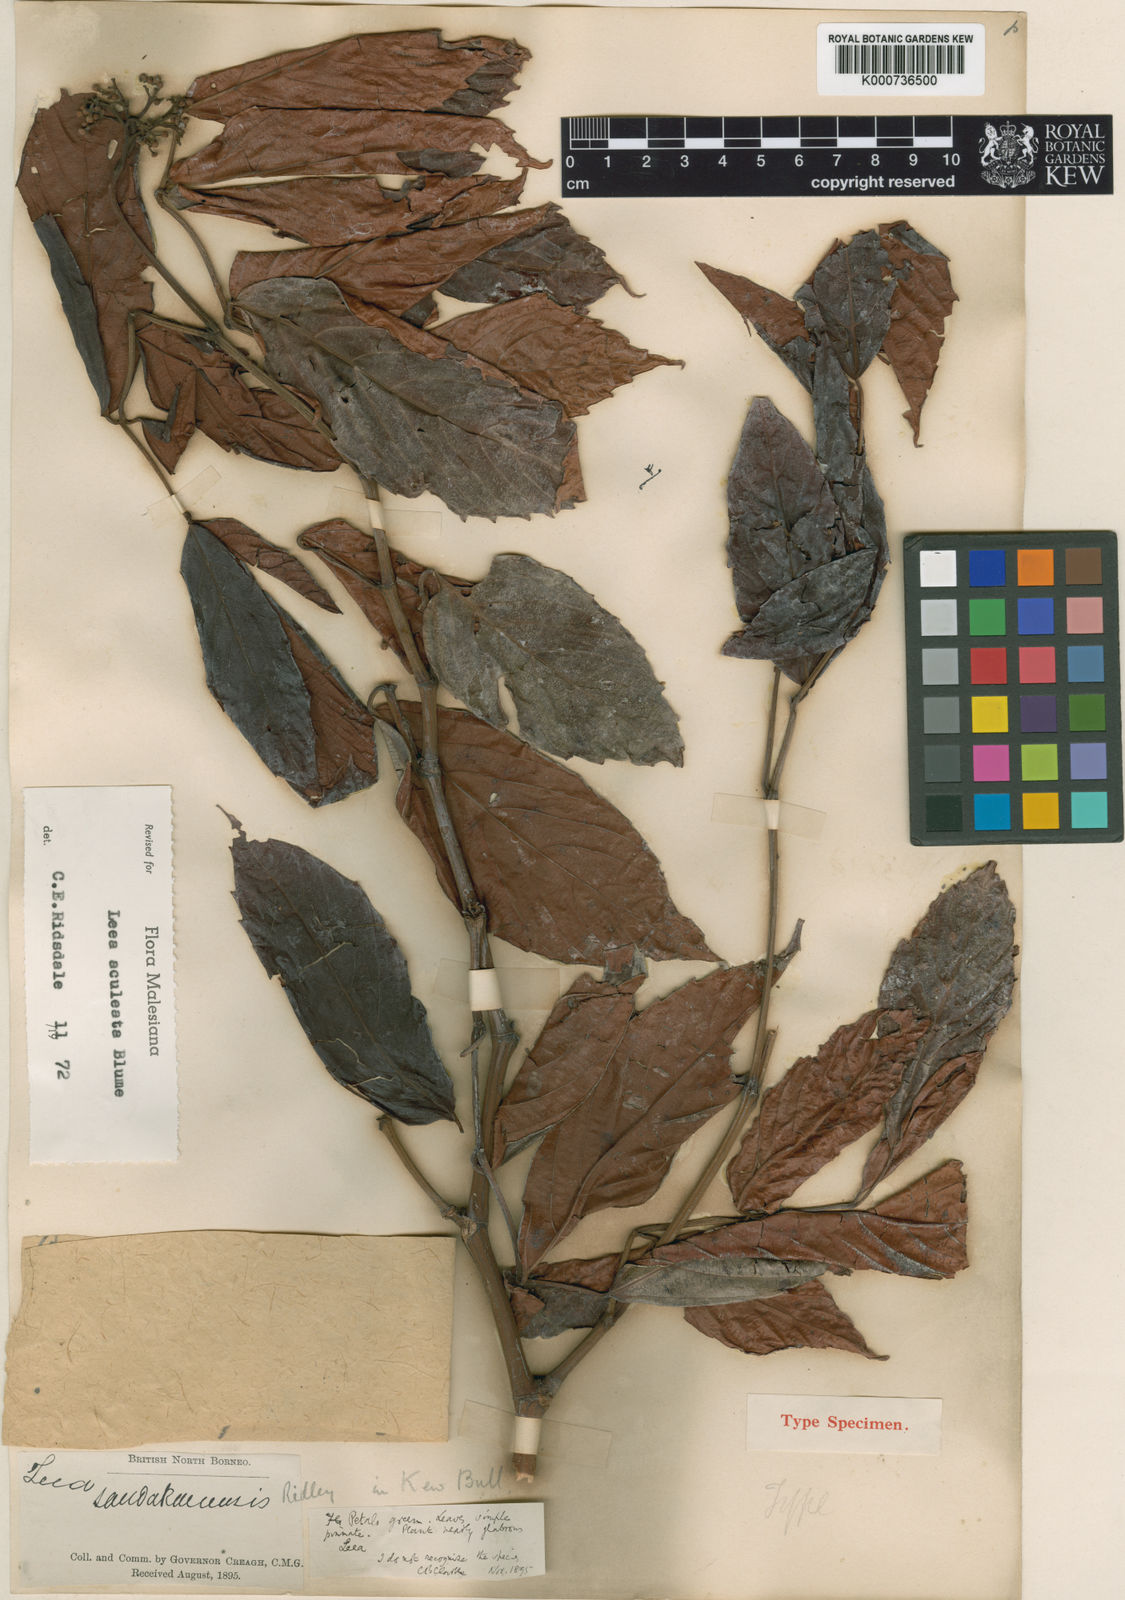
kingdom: Plantae
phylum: Tracheophyta
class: Magnoliopsida
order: Vitales
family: Vitaceae
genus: Leea
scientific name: Leea aculeata
